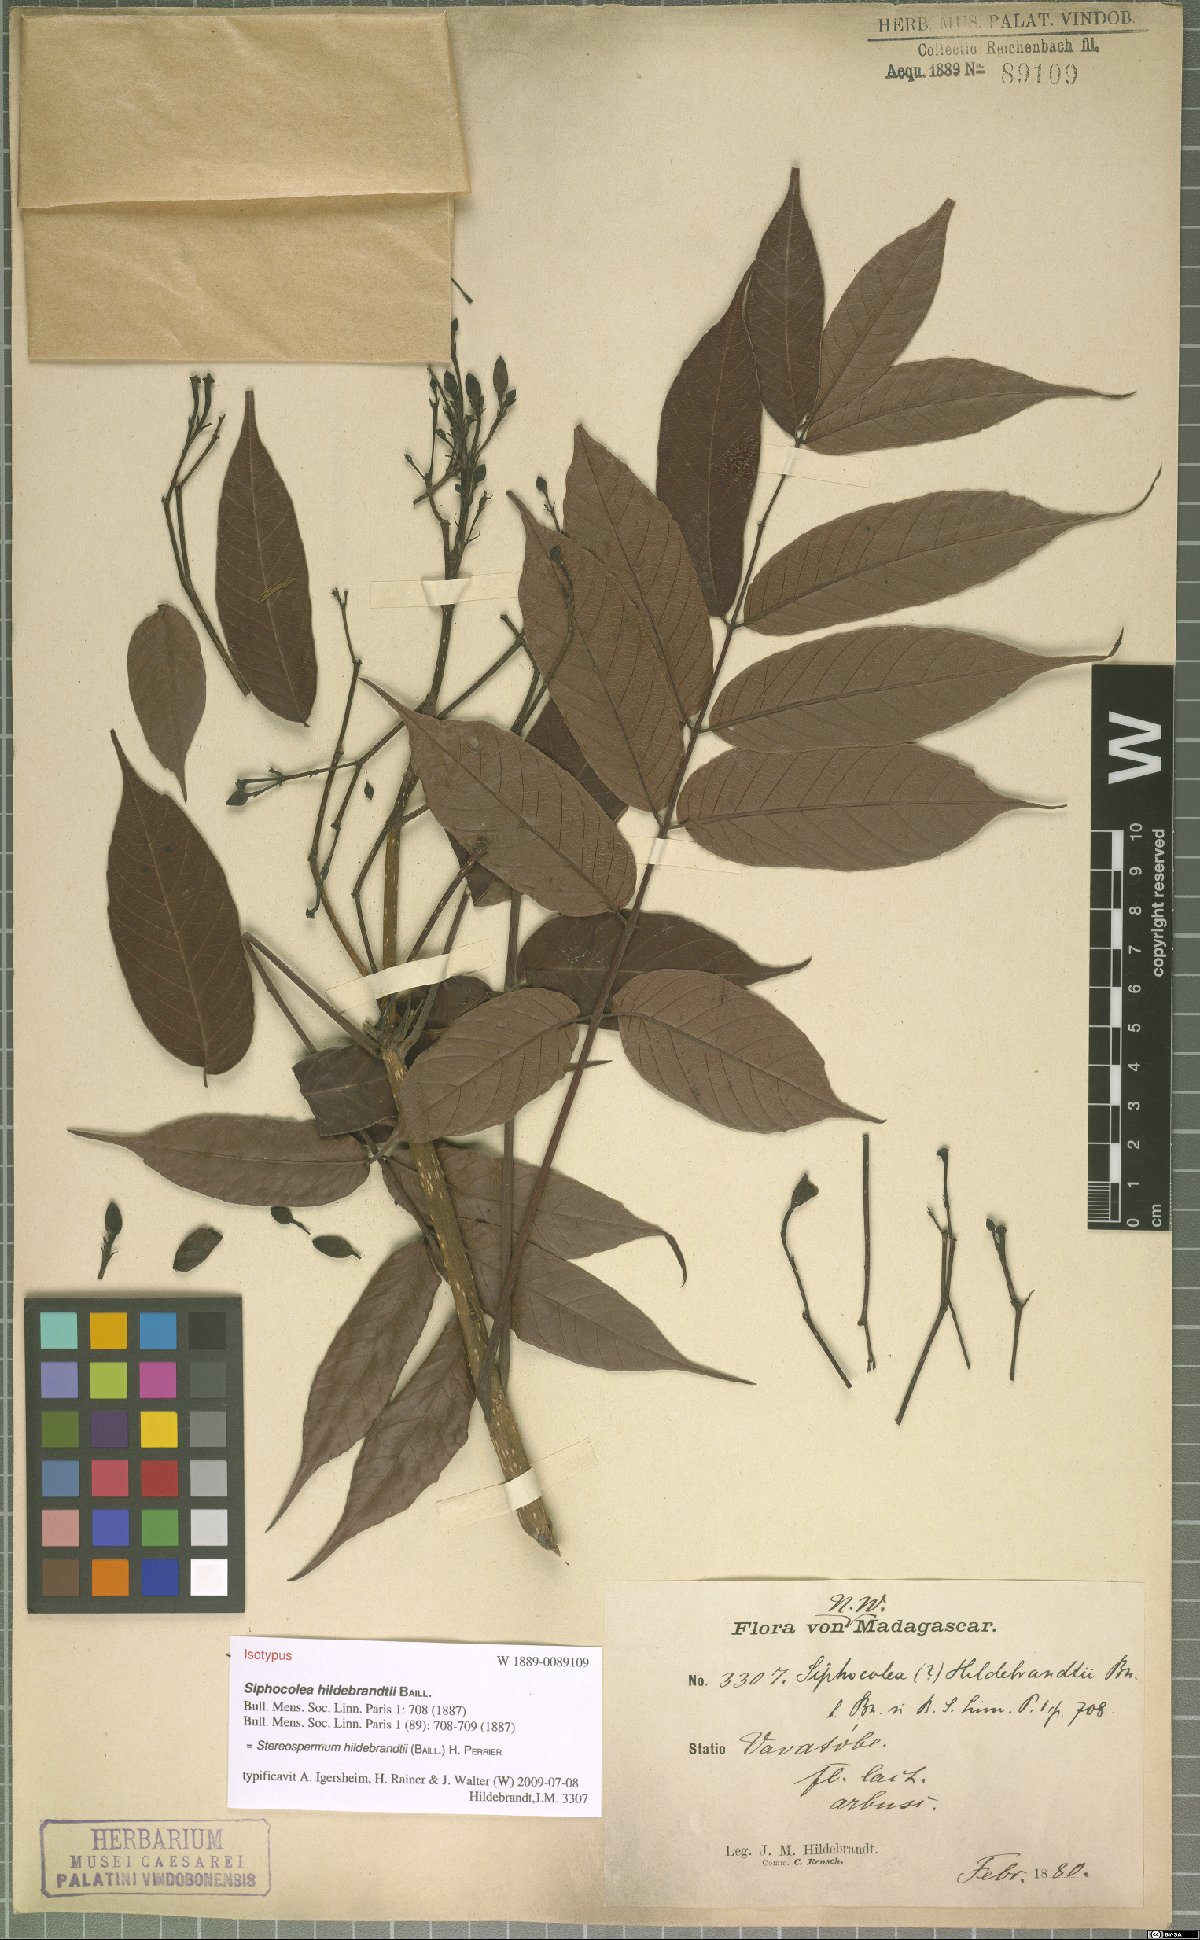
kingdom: Plantae
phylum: Tracheophyta
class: Magnoliopsida
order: Lamiales
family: Bignoniaceae
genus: Stereospermum
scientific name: Stereospermum hildebrandtii
